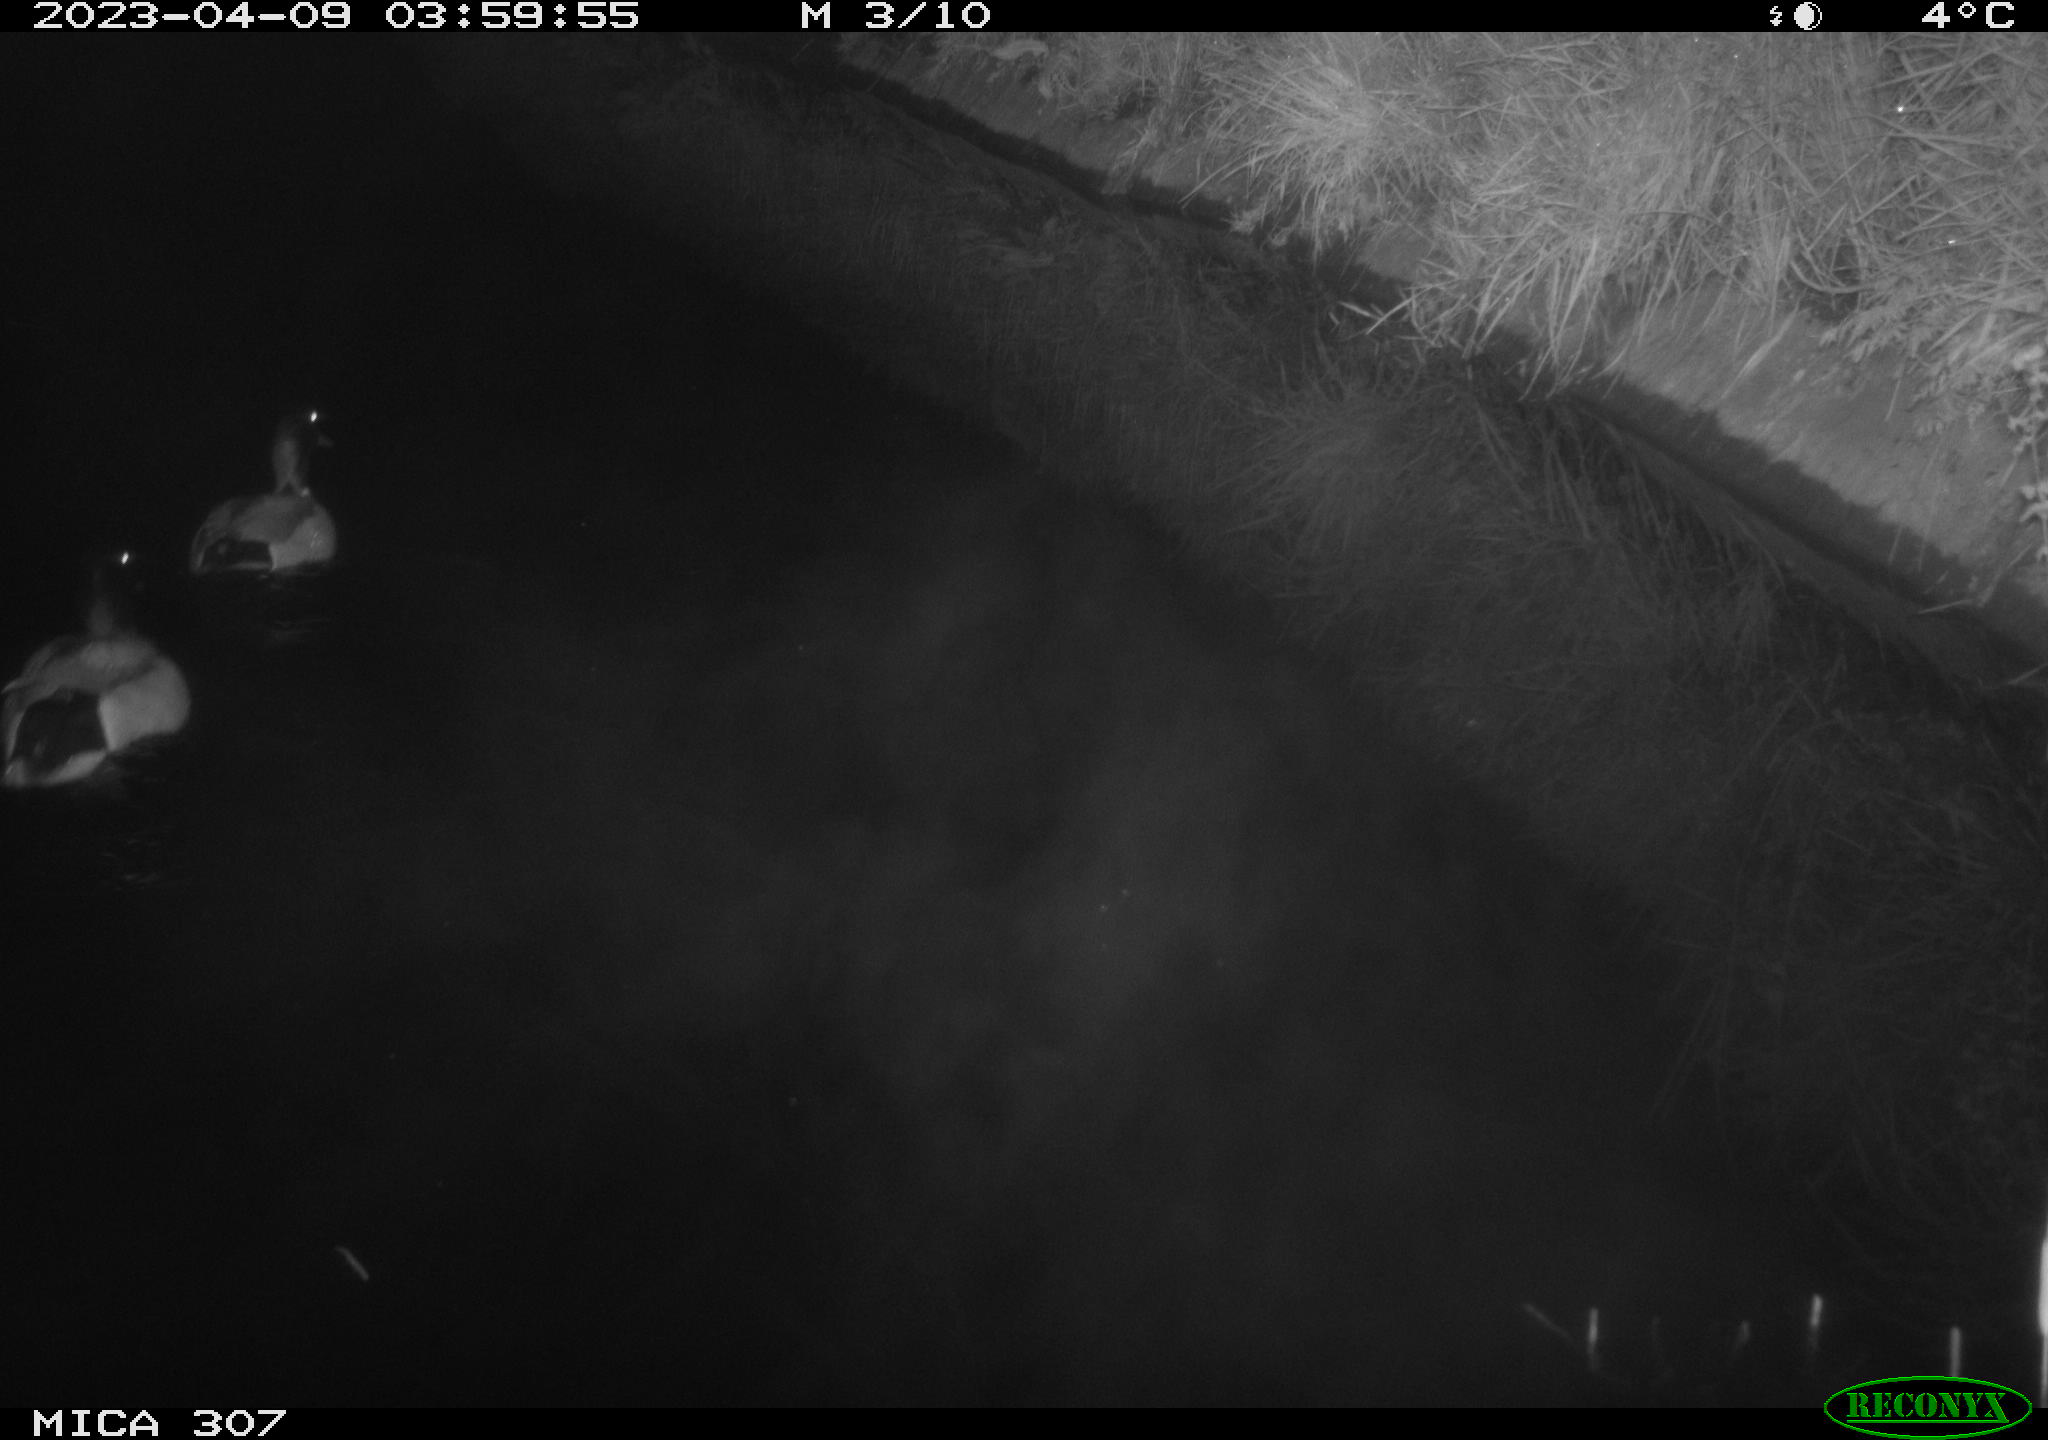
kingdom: Animalia
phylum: Chordata
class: Aves
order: Anseriformes
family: Anatidae
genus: Anas
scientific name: Anas
